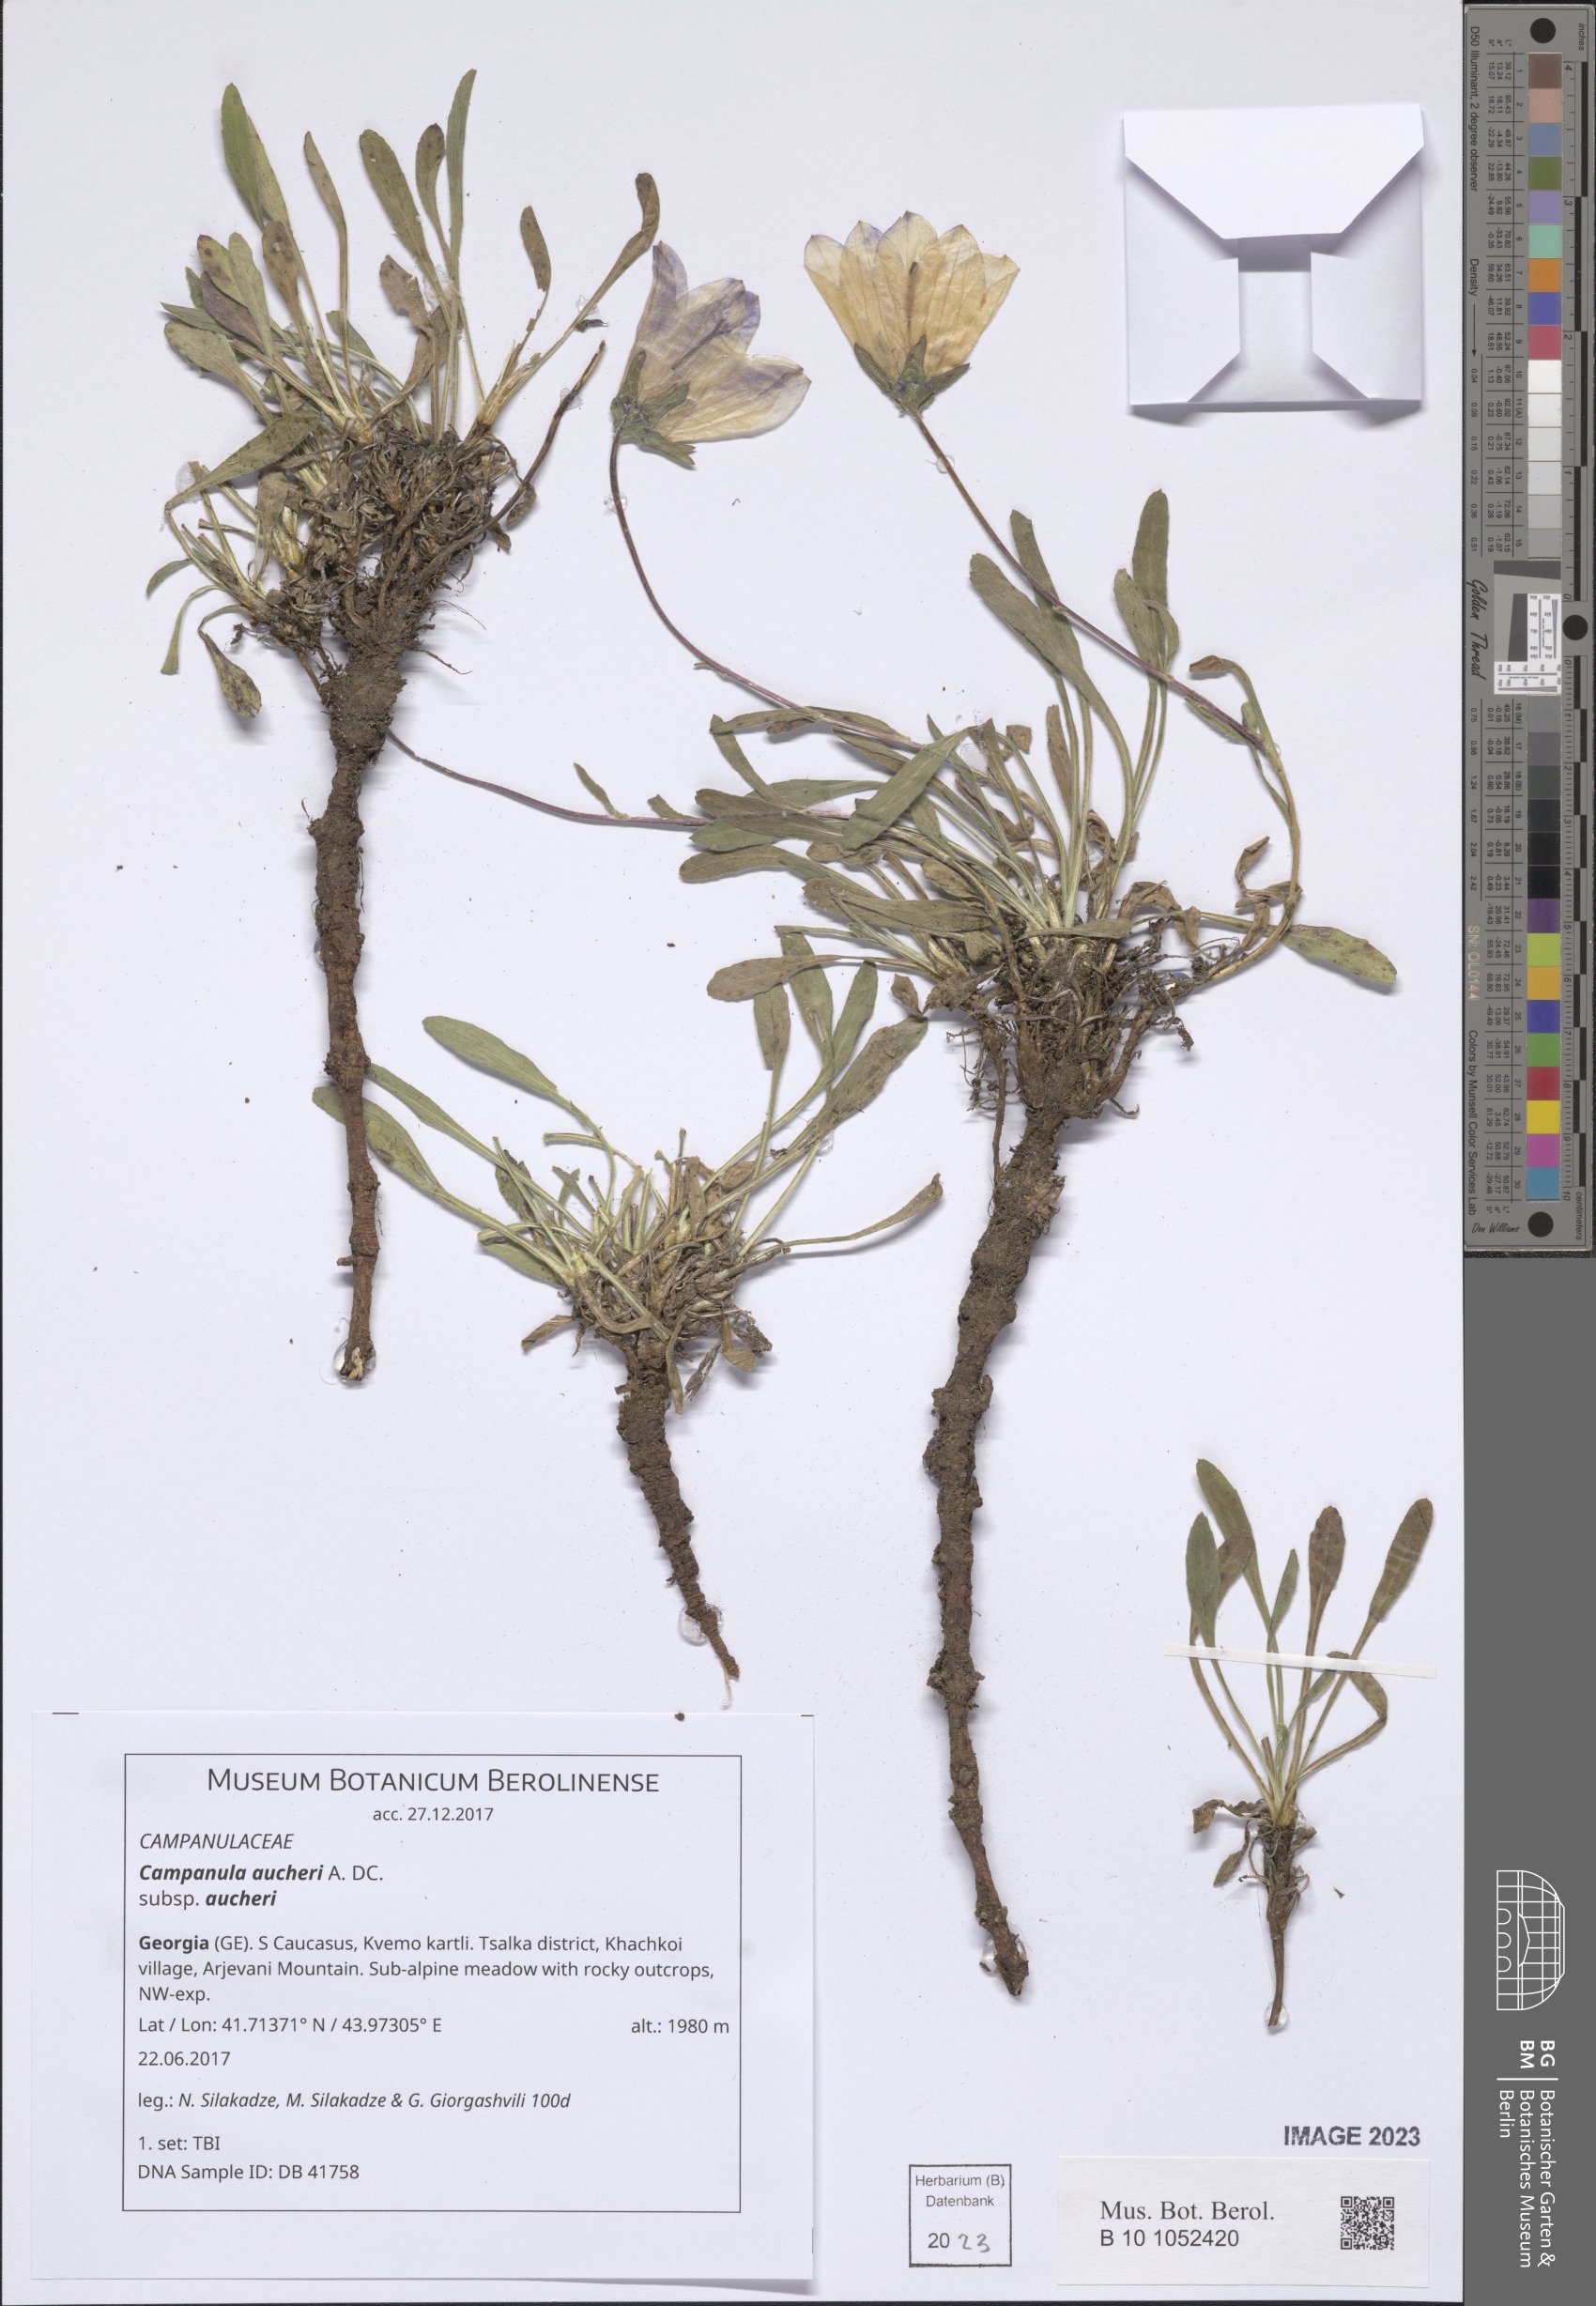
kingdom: Plantae
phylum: Tracheophyta
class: Magnoliopsida
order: Asterales
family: Campanulaceae
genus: Campanula
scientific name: Campanula saxifraga
